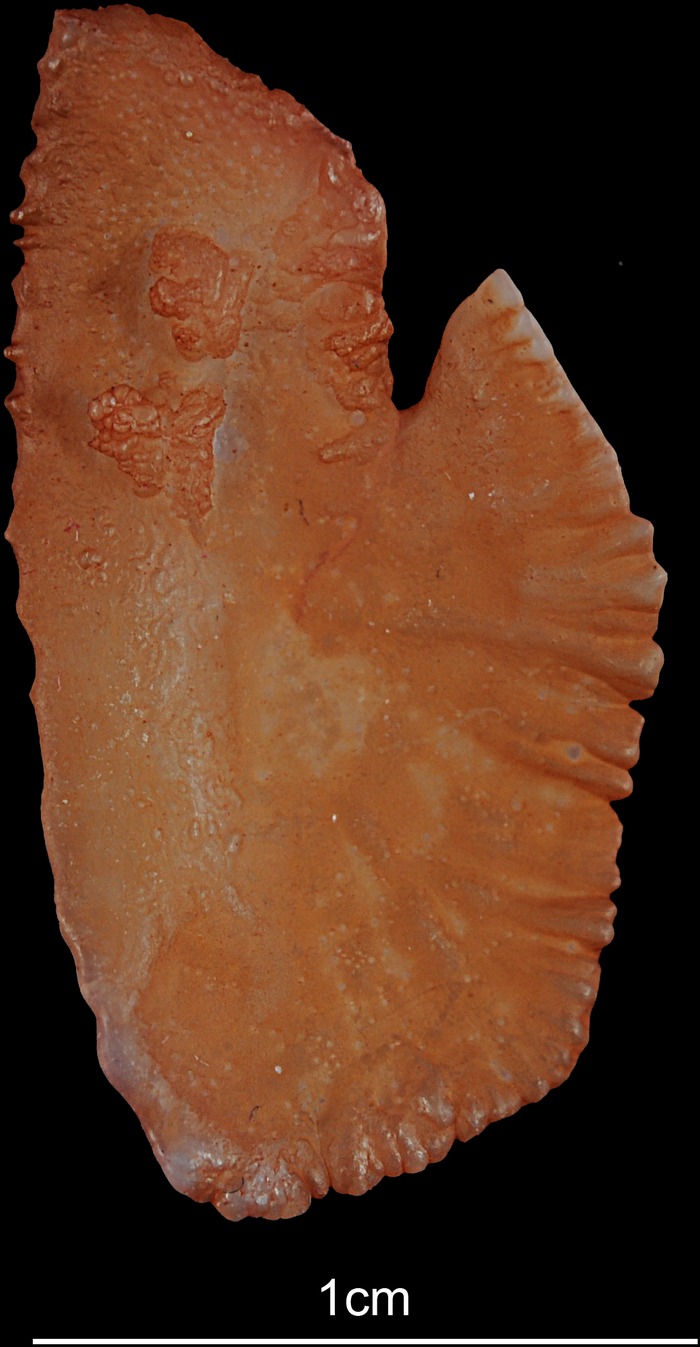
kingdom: Animalia
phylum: Chordata
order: Perciformes
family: Latidae
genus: Lates
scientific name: Lates niloticus
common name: Nile perch
